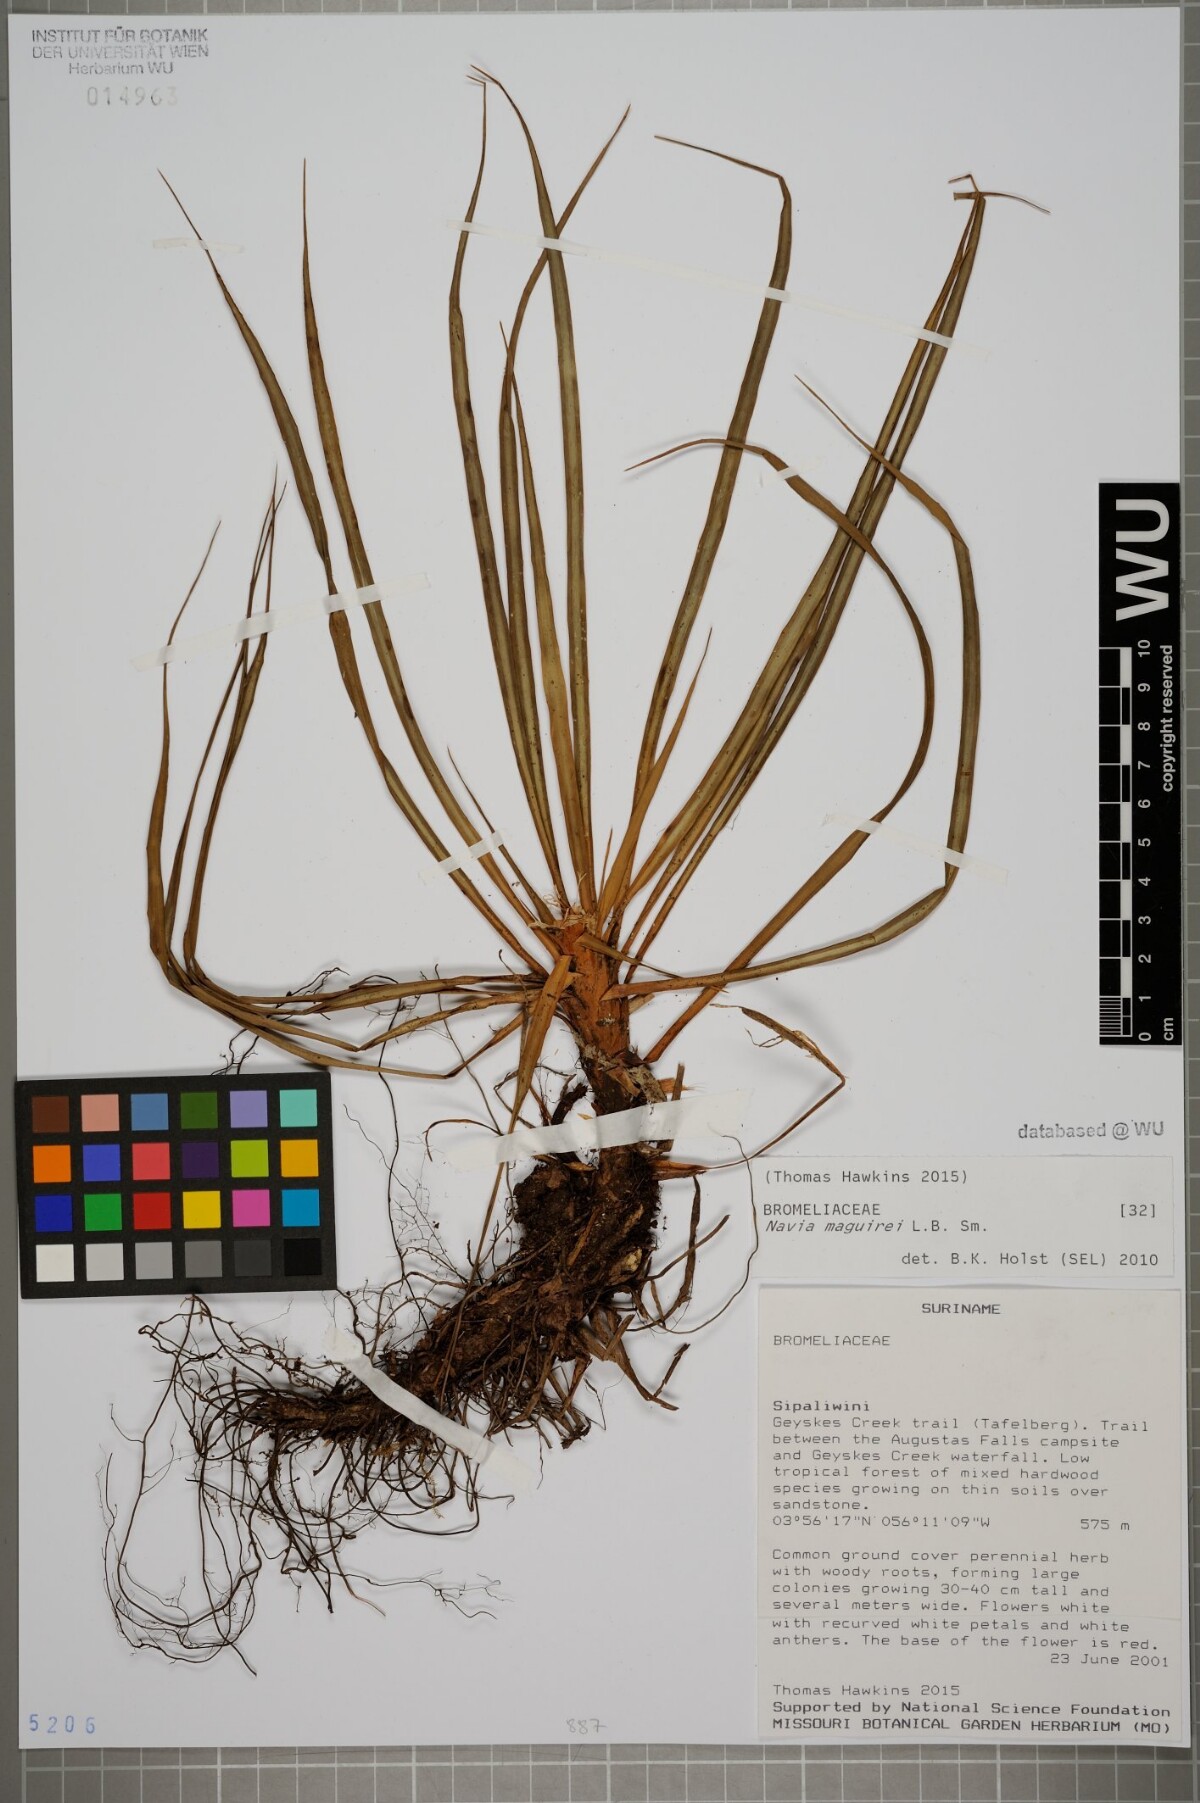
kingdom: Plantae
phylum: Tracheophyta
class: Liliopsida
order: Poales
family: Bromeliaceae
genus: Navia
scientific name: Navia maguirei
